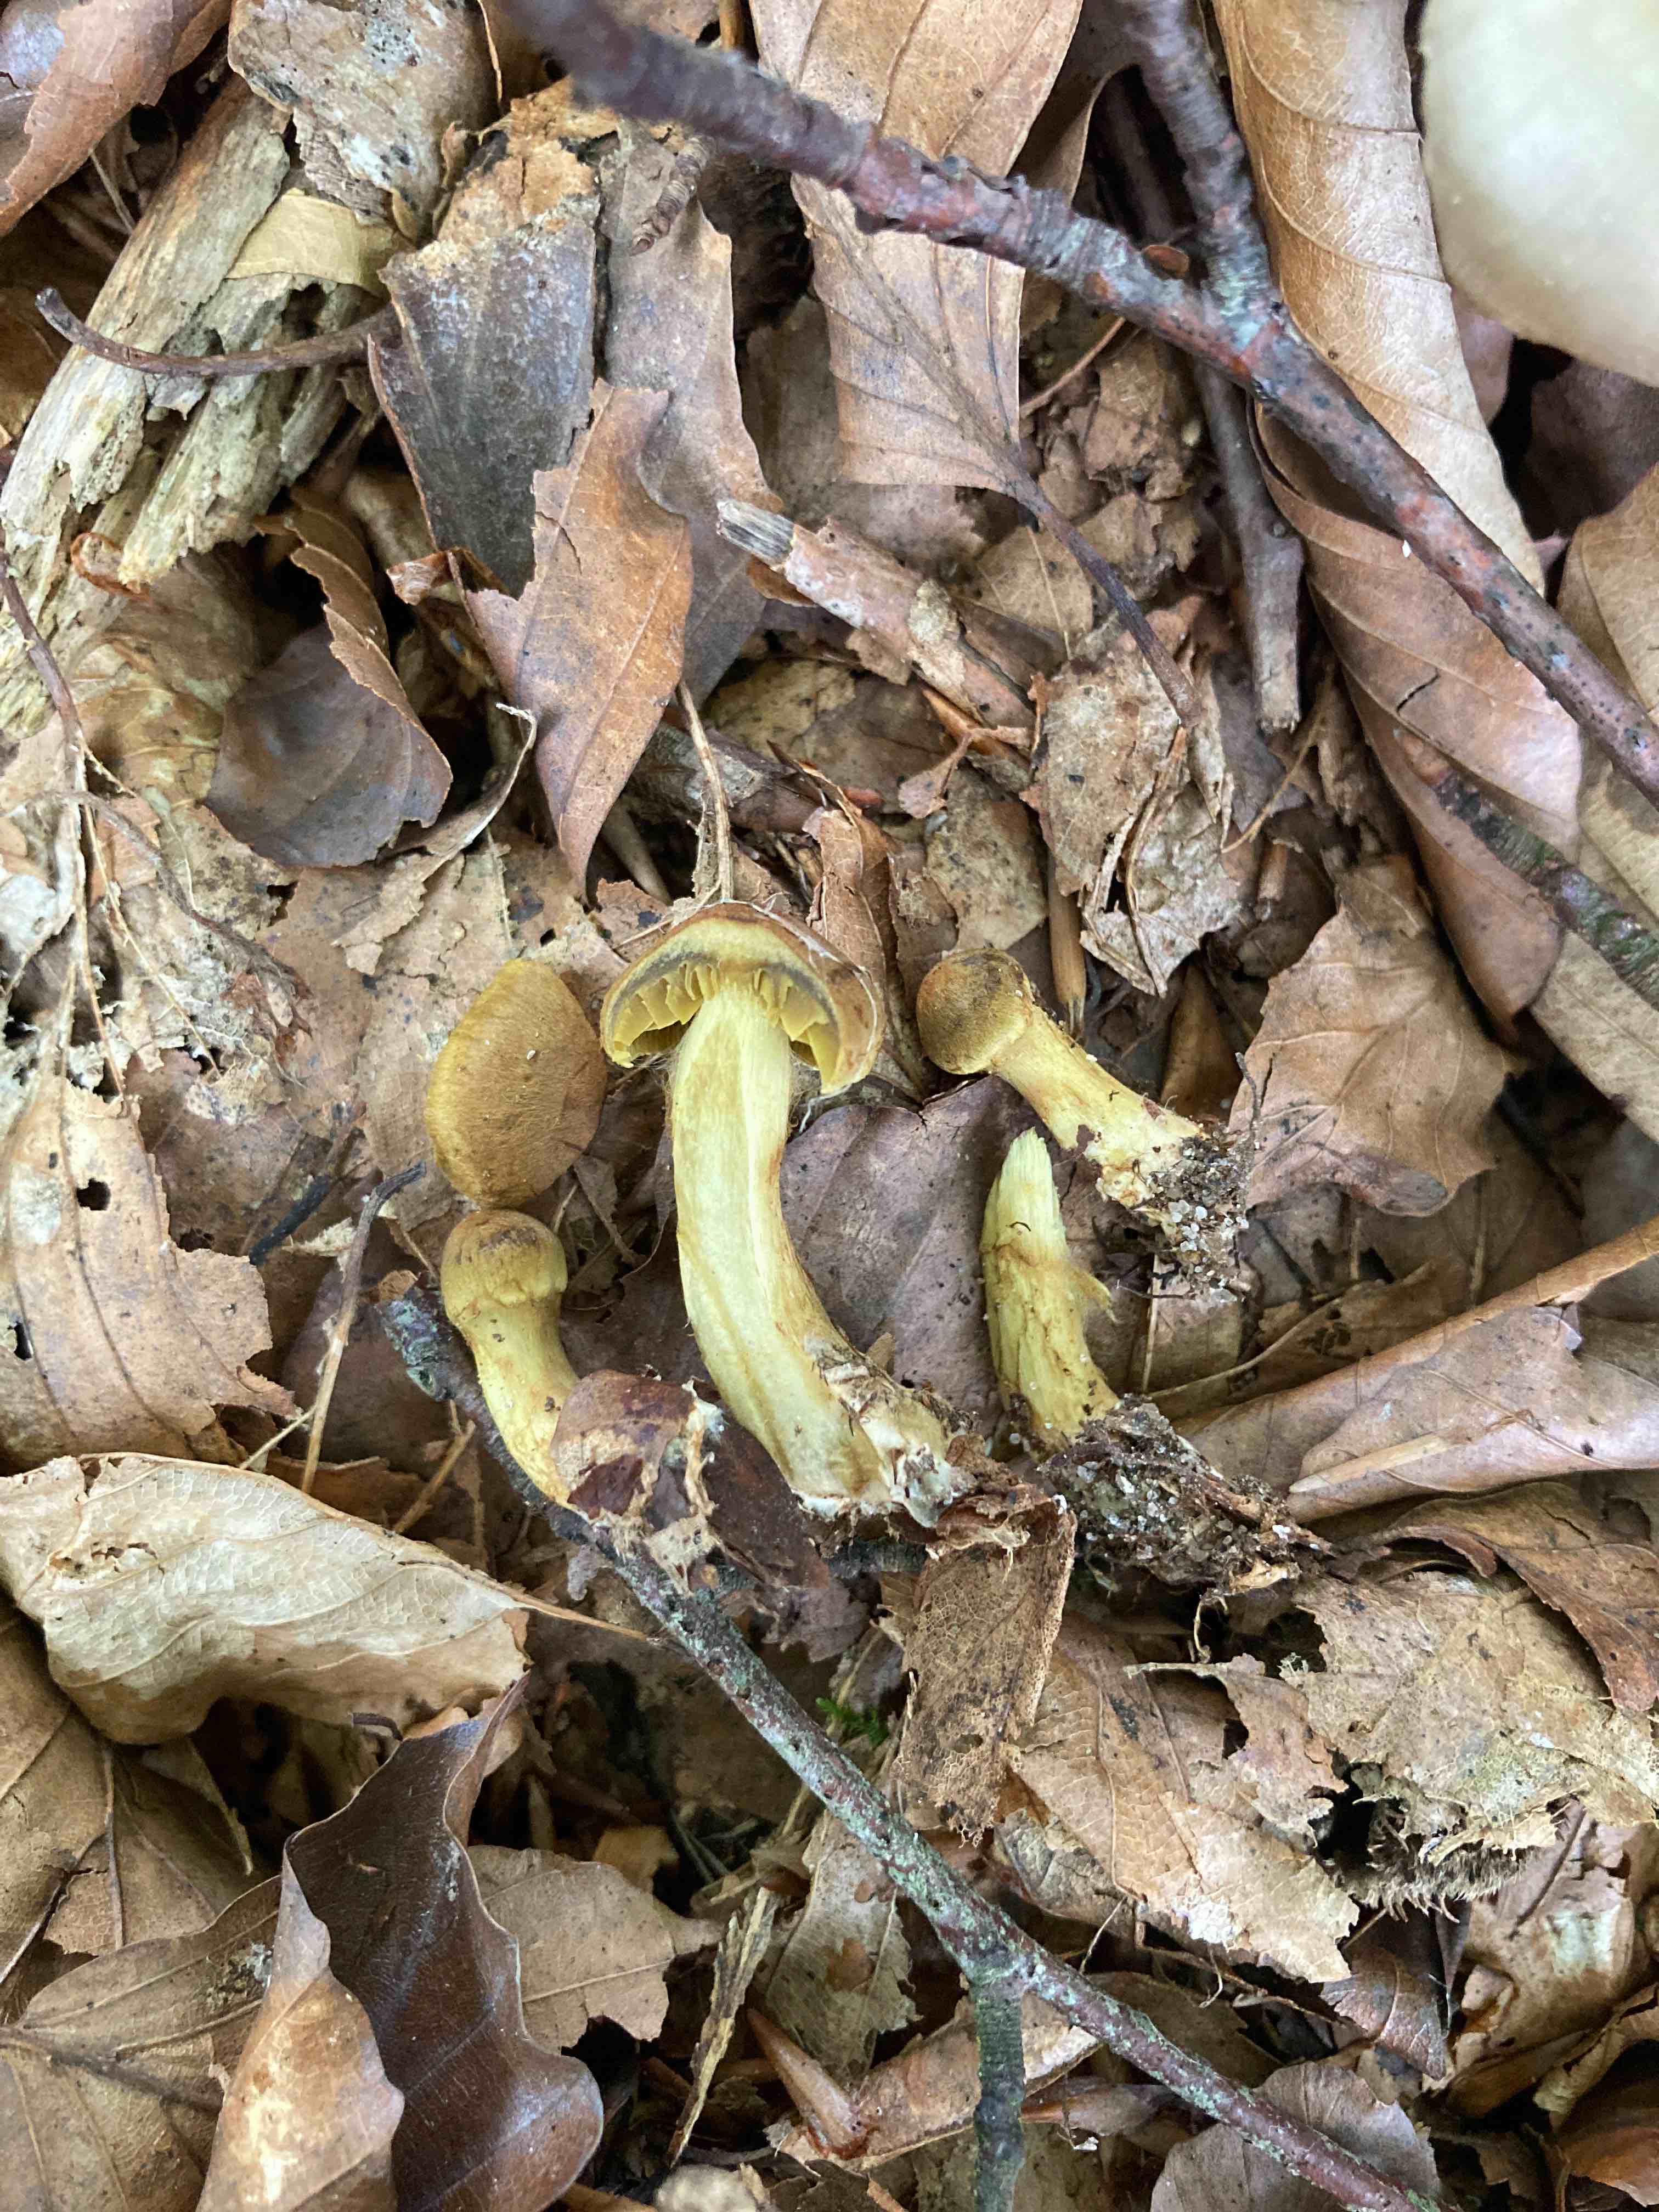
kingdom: Fungi
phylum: Basidiomycota
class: Agaricomycetes
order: Agaricales
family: Cortinariaceae
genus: Cortinarius
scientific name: Cortinarius olivaceofuscus
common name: olivenbrun slørhat
